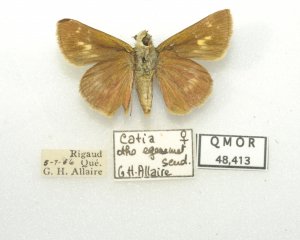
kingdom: Animalia
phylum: Arthropoda
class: Insecta
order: Lepidoptera
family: Hesperiidae
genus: Polites
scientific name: Polites egeremet
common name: Northern Broken-Dash
